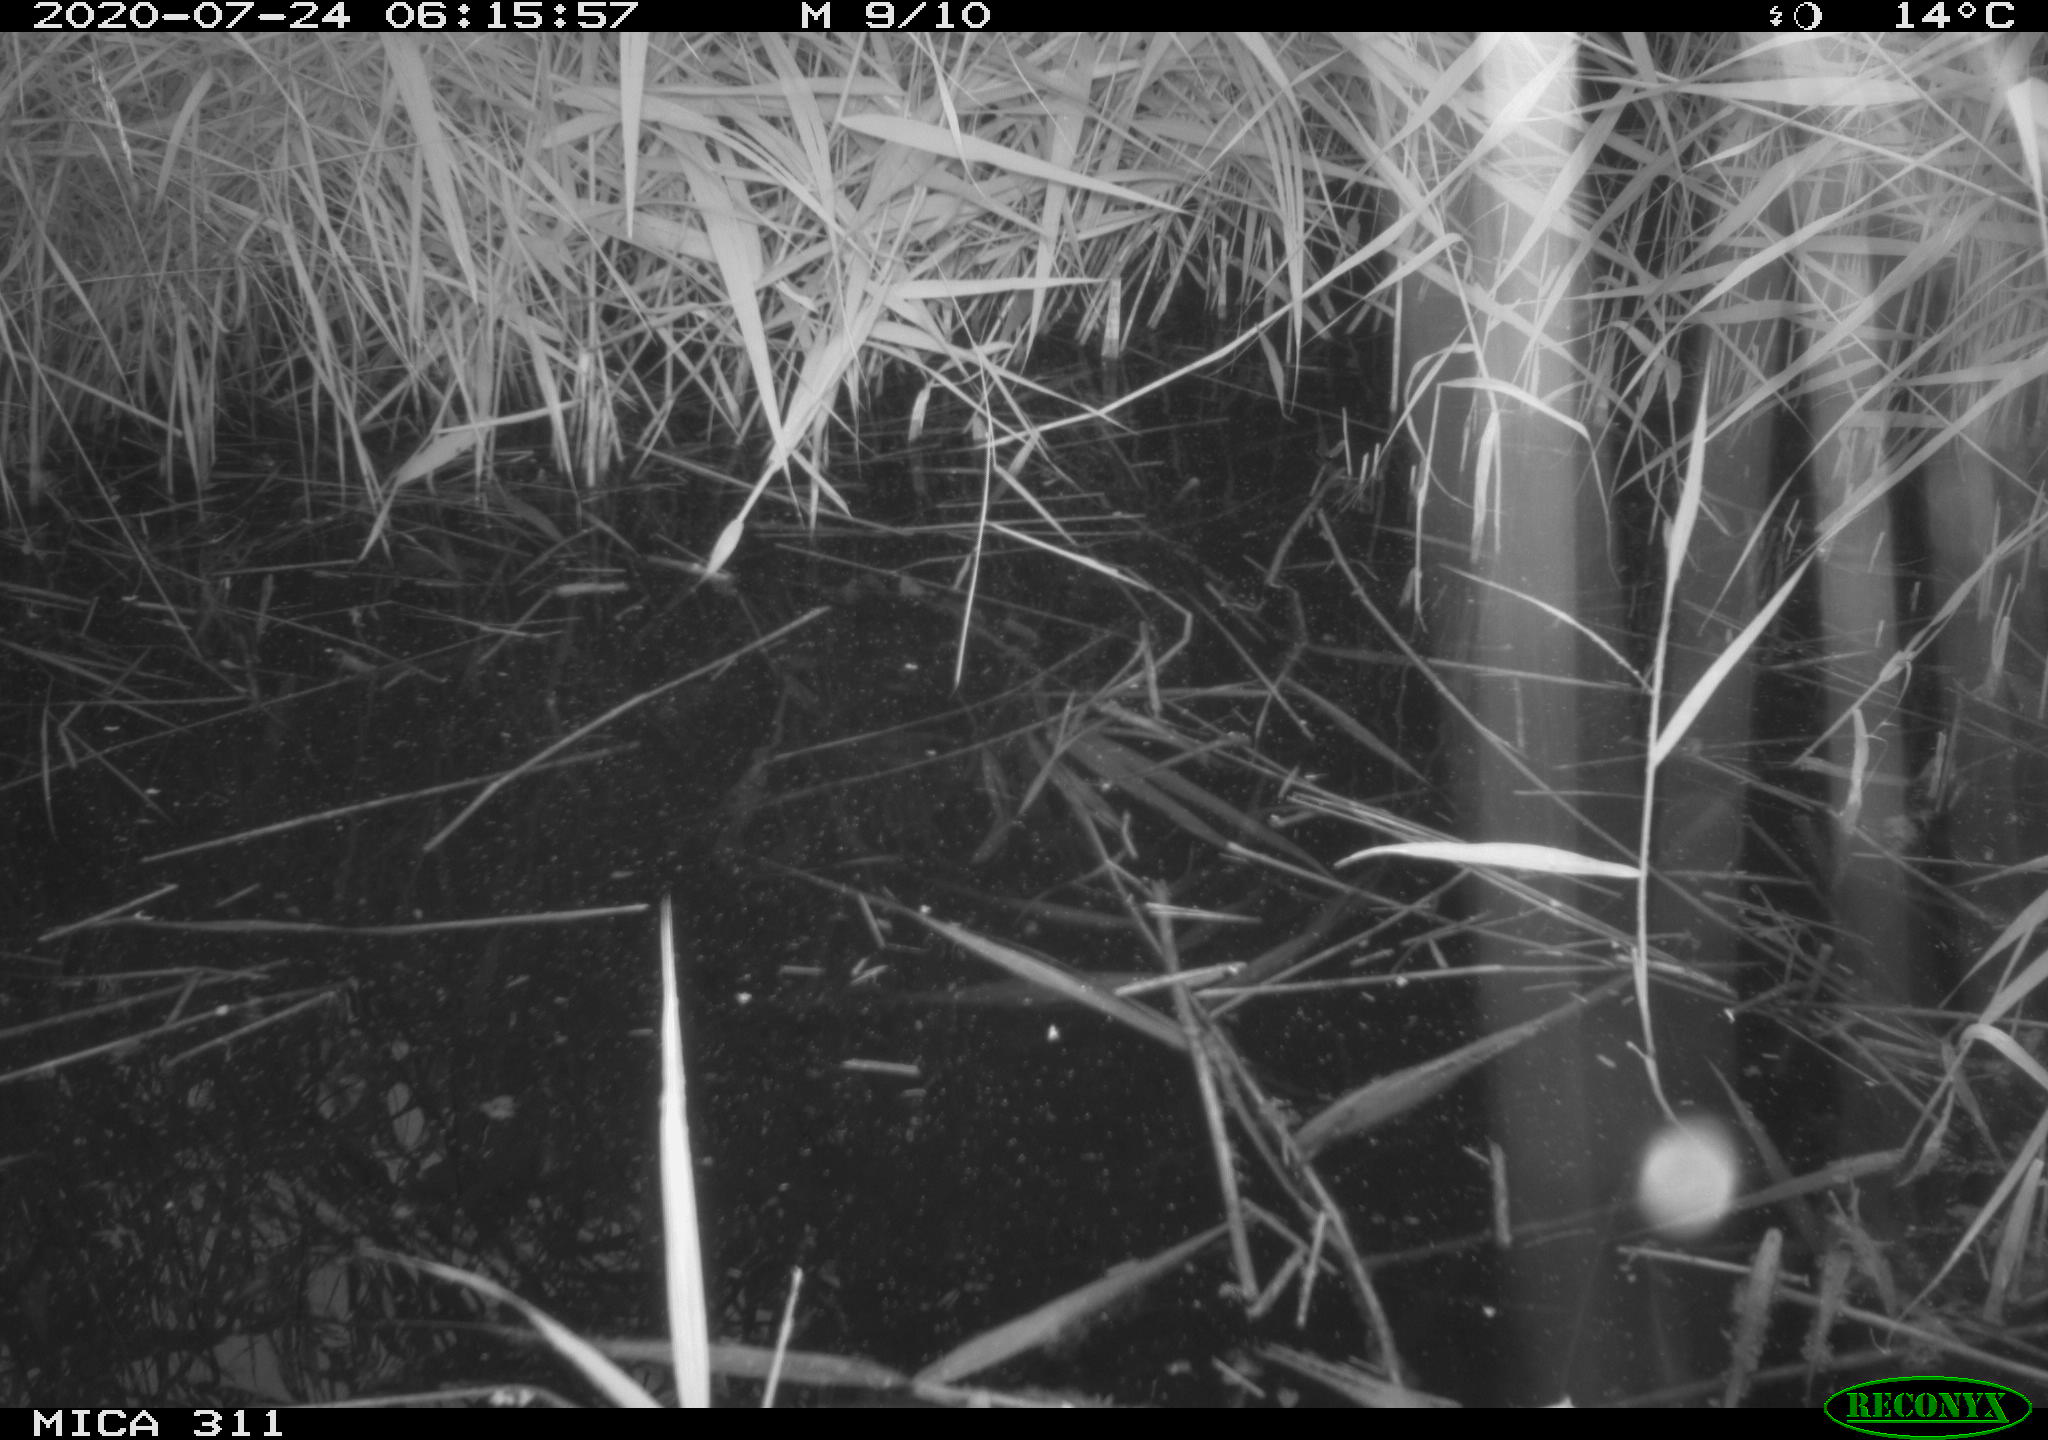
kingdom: Animalia
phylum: Chordata
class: Aves
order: Anseriformes
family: Anatidae
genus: Anas
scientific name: Anas platyrhynchos
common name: Mallard
